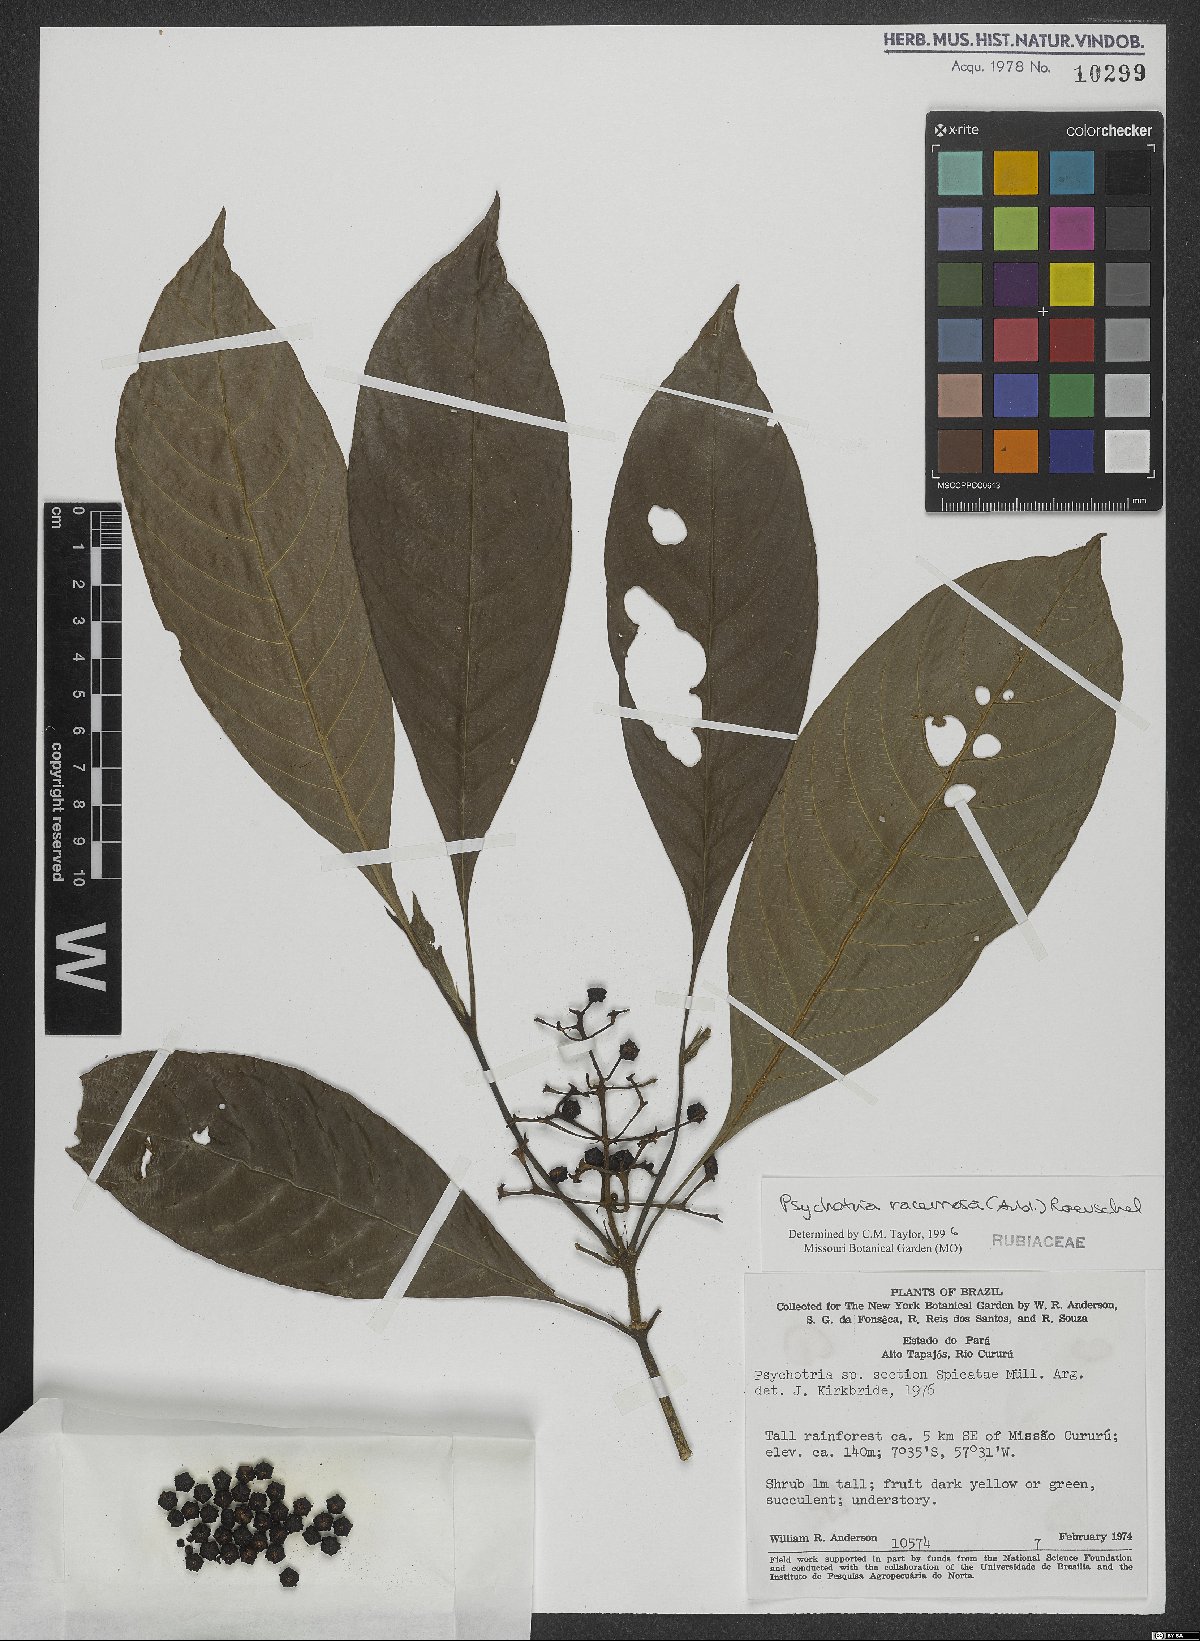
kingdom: Plantae
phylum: Tracheophyta
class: Magnoliopsida
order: Gentianales
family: Rubiaceae
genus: Palicourea
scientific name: Palicourea racemosa
